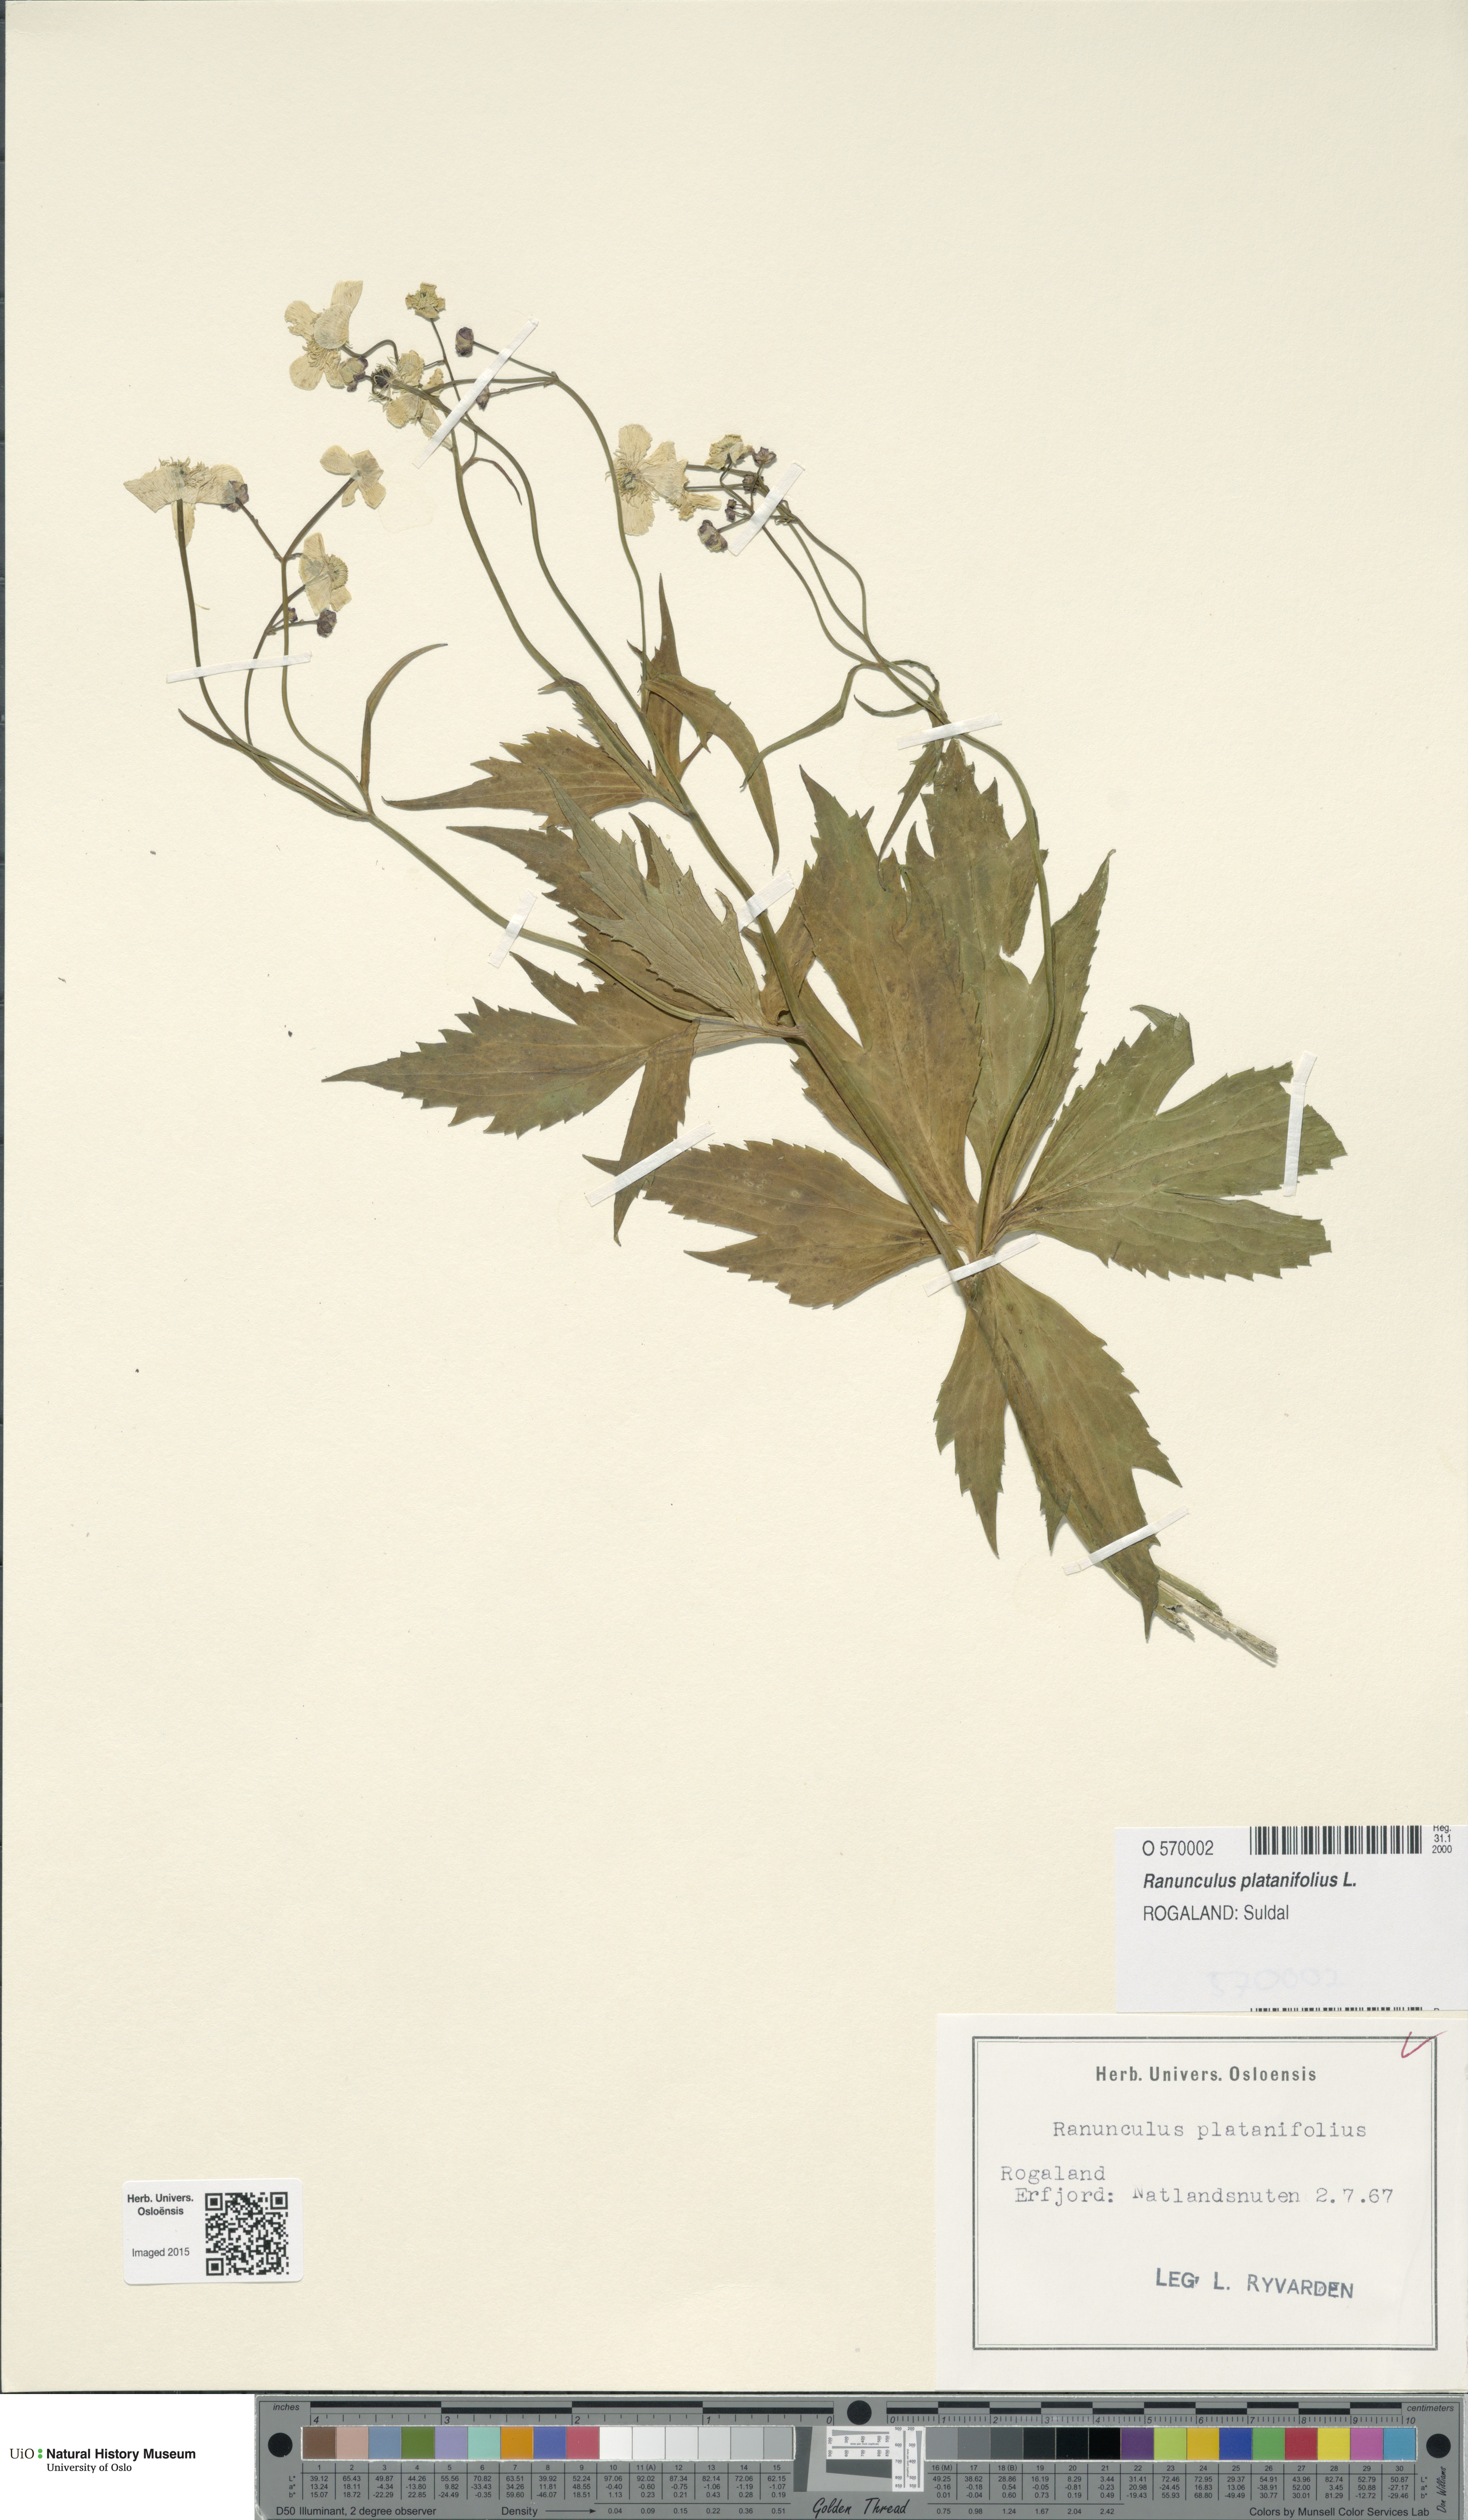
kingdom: Plantae
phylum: Tracheophyta
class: Magnoliopsida
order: Ranunculales
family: Ranunculaceae
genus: Ranunculus
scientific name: Ranunculus platanifolius
